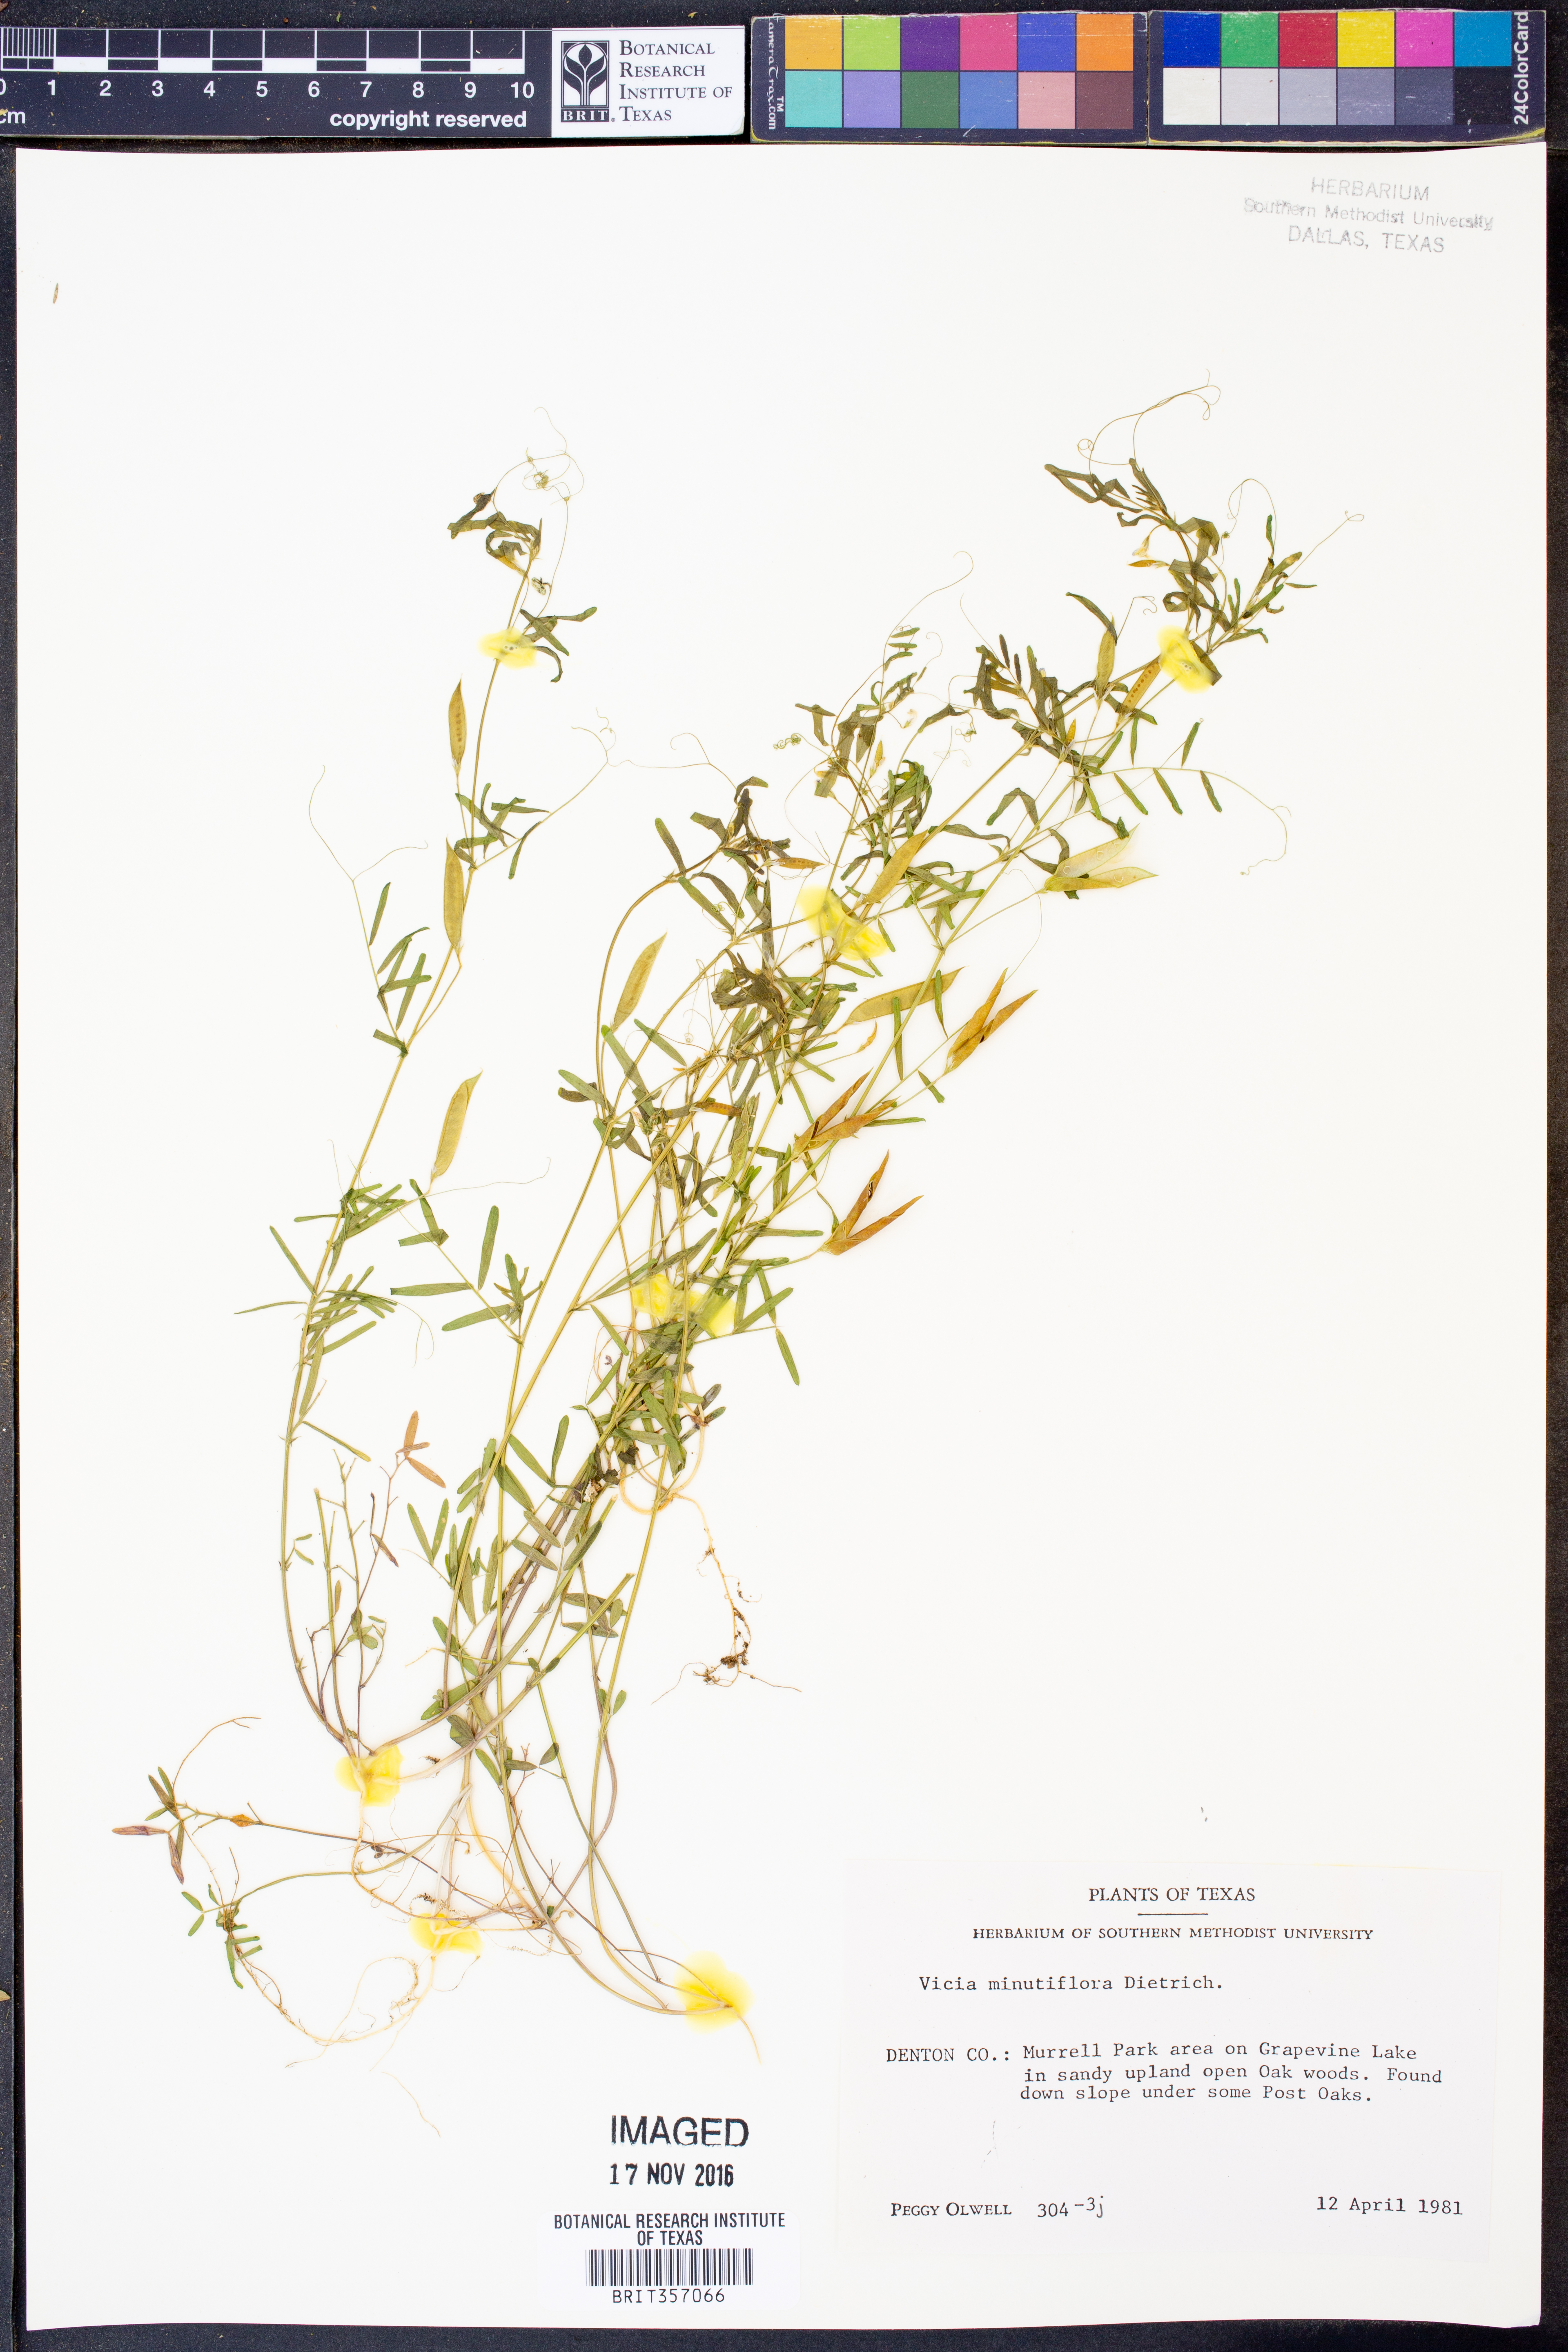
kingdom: Plantae
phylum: Tracheophyta
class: Magnoliopsida
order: Fabales
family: Fabaceae
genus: Vicia
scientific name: Vicia minutiflora
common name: Pygmy-flower vetch
